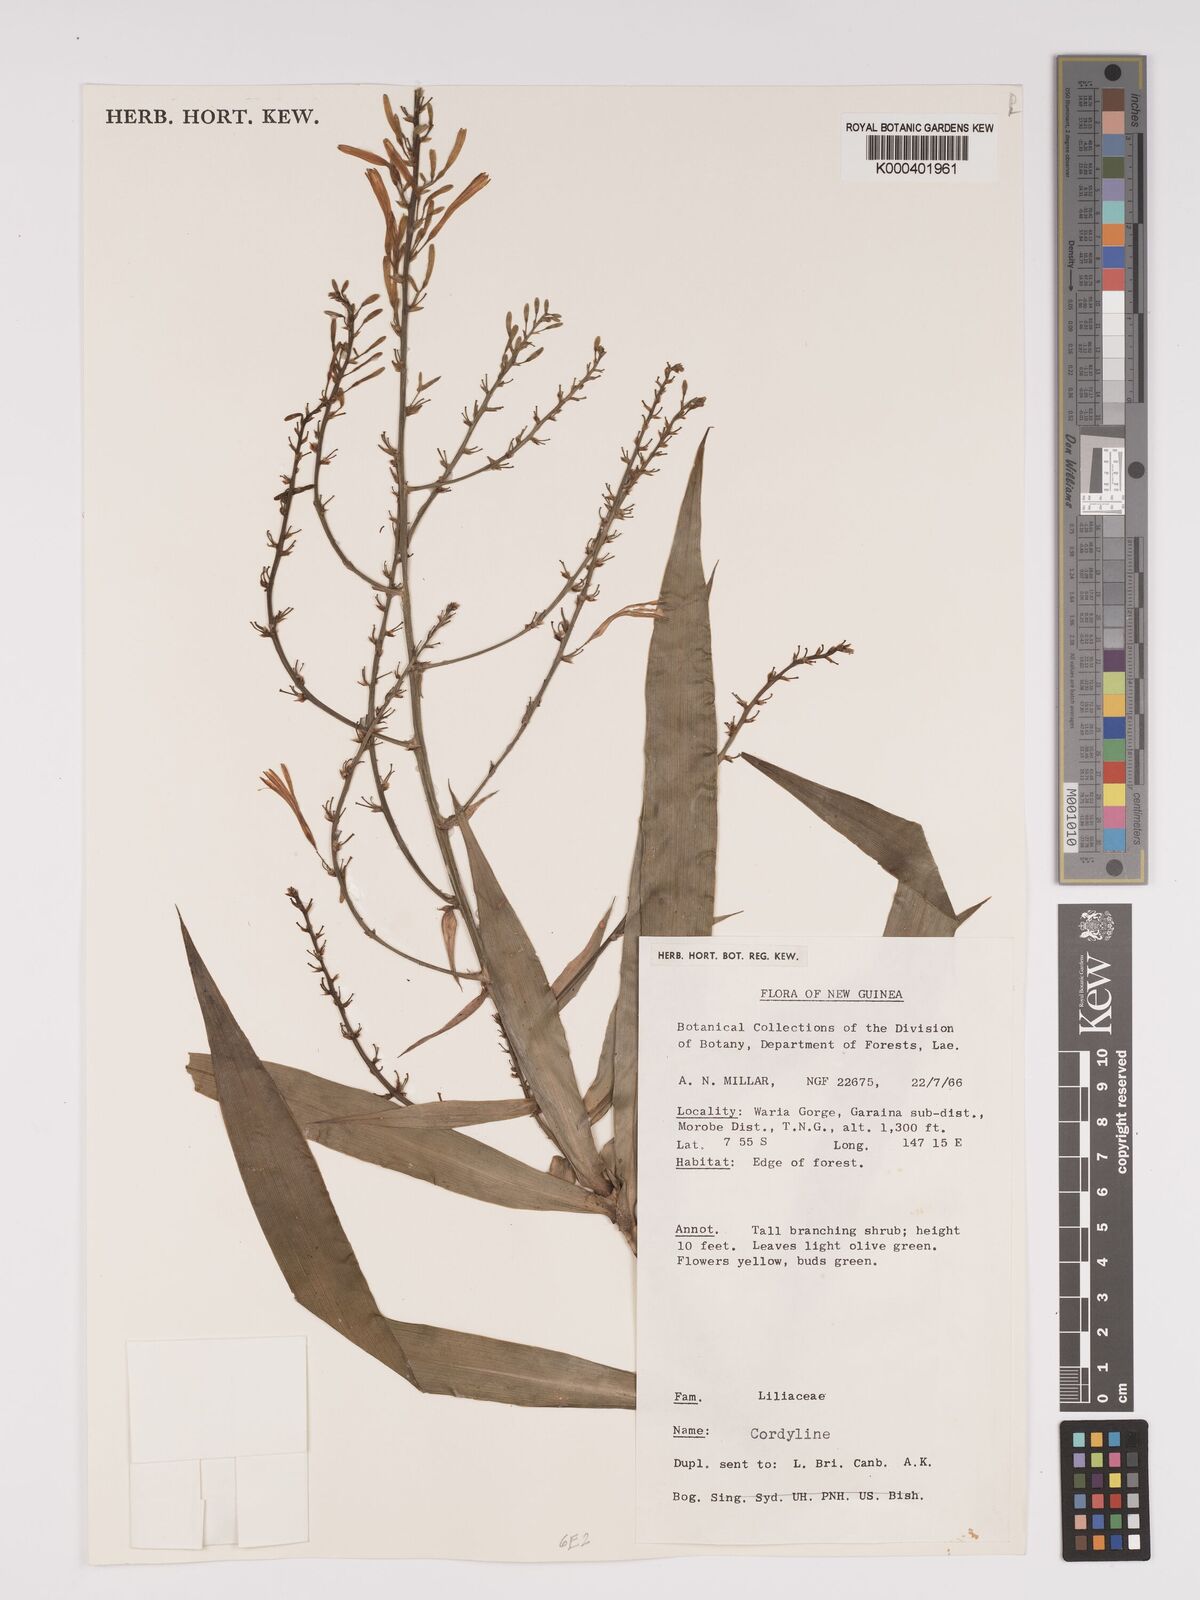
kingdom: Plantae
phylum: Tracheophyta
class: Liliopsida
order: Asparagales
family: Asparagaceae
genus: Dracaena
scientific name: Dracaena angustifolia
